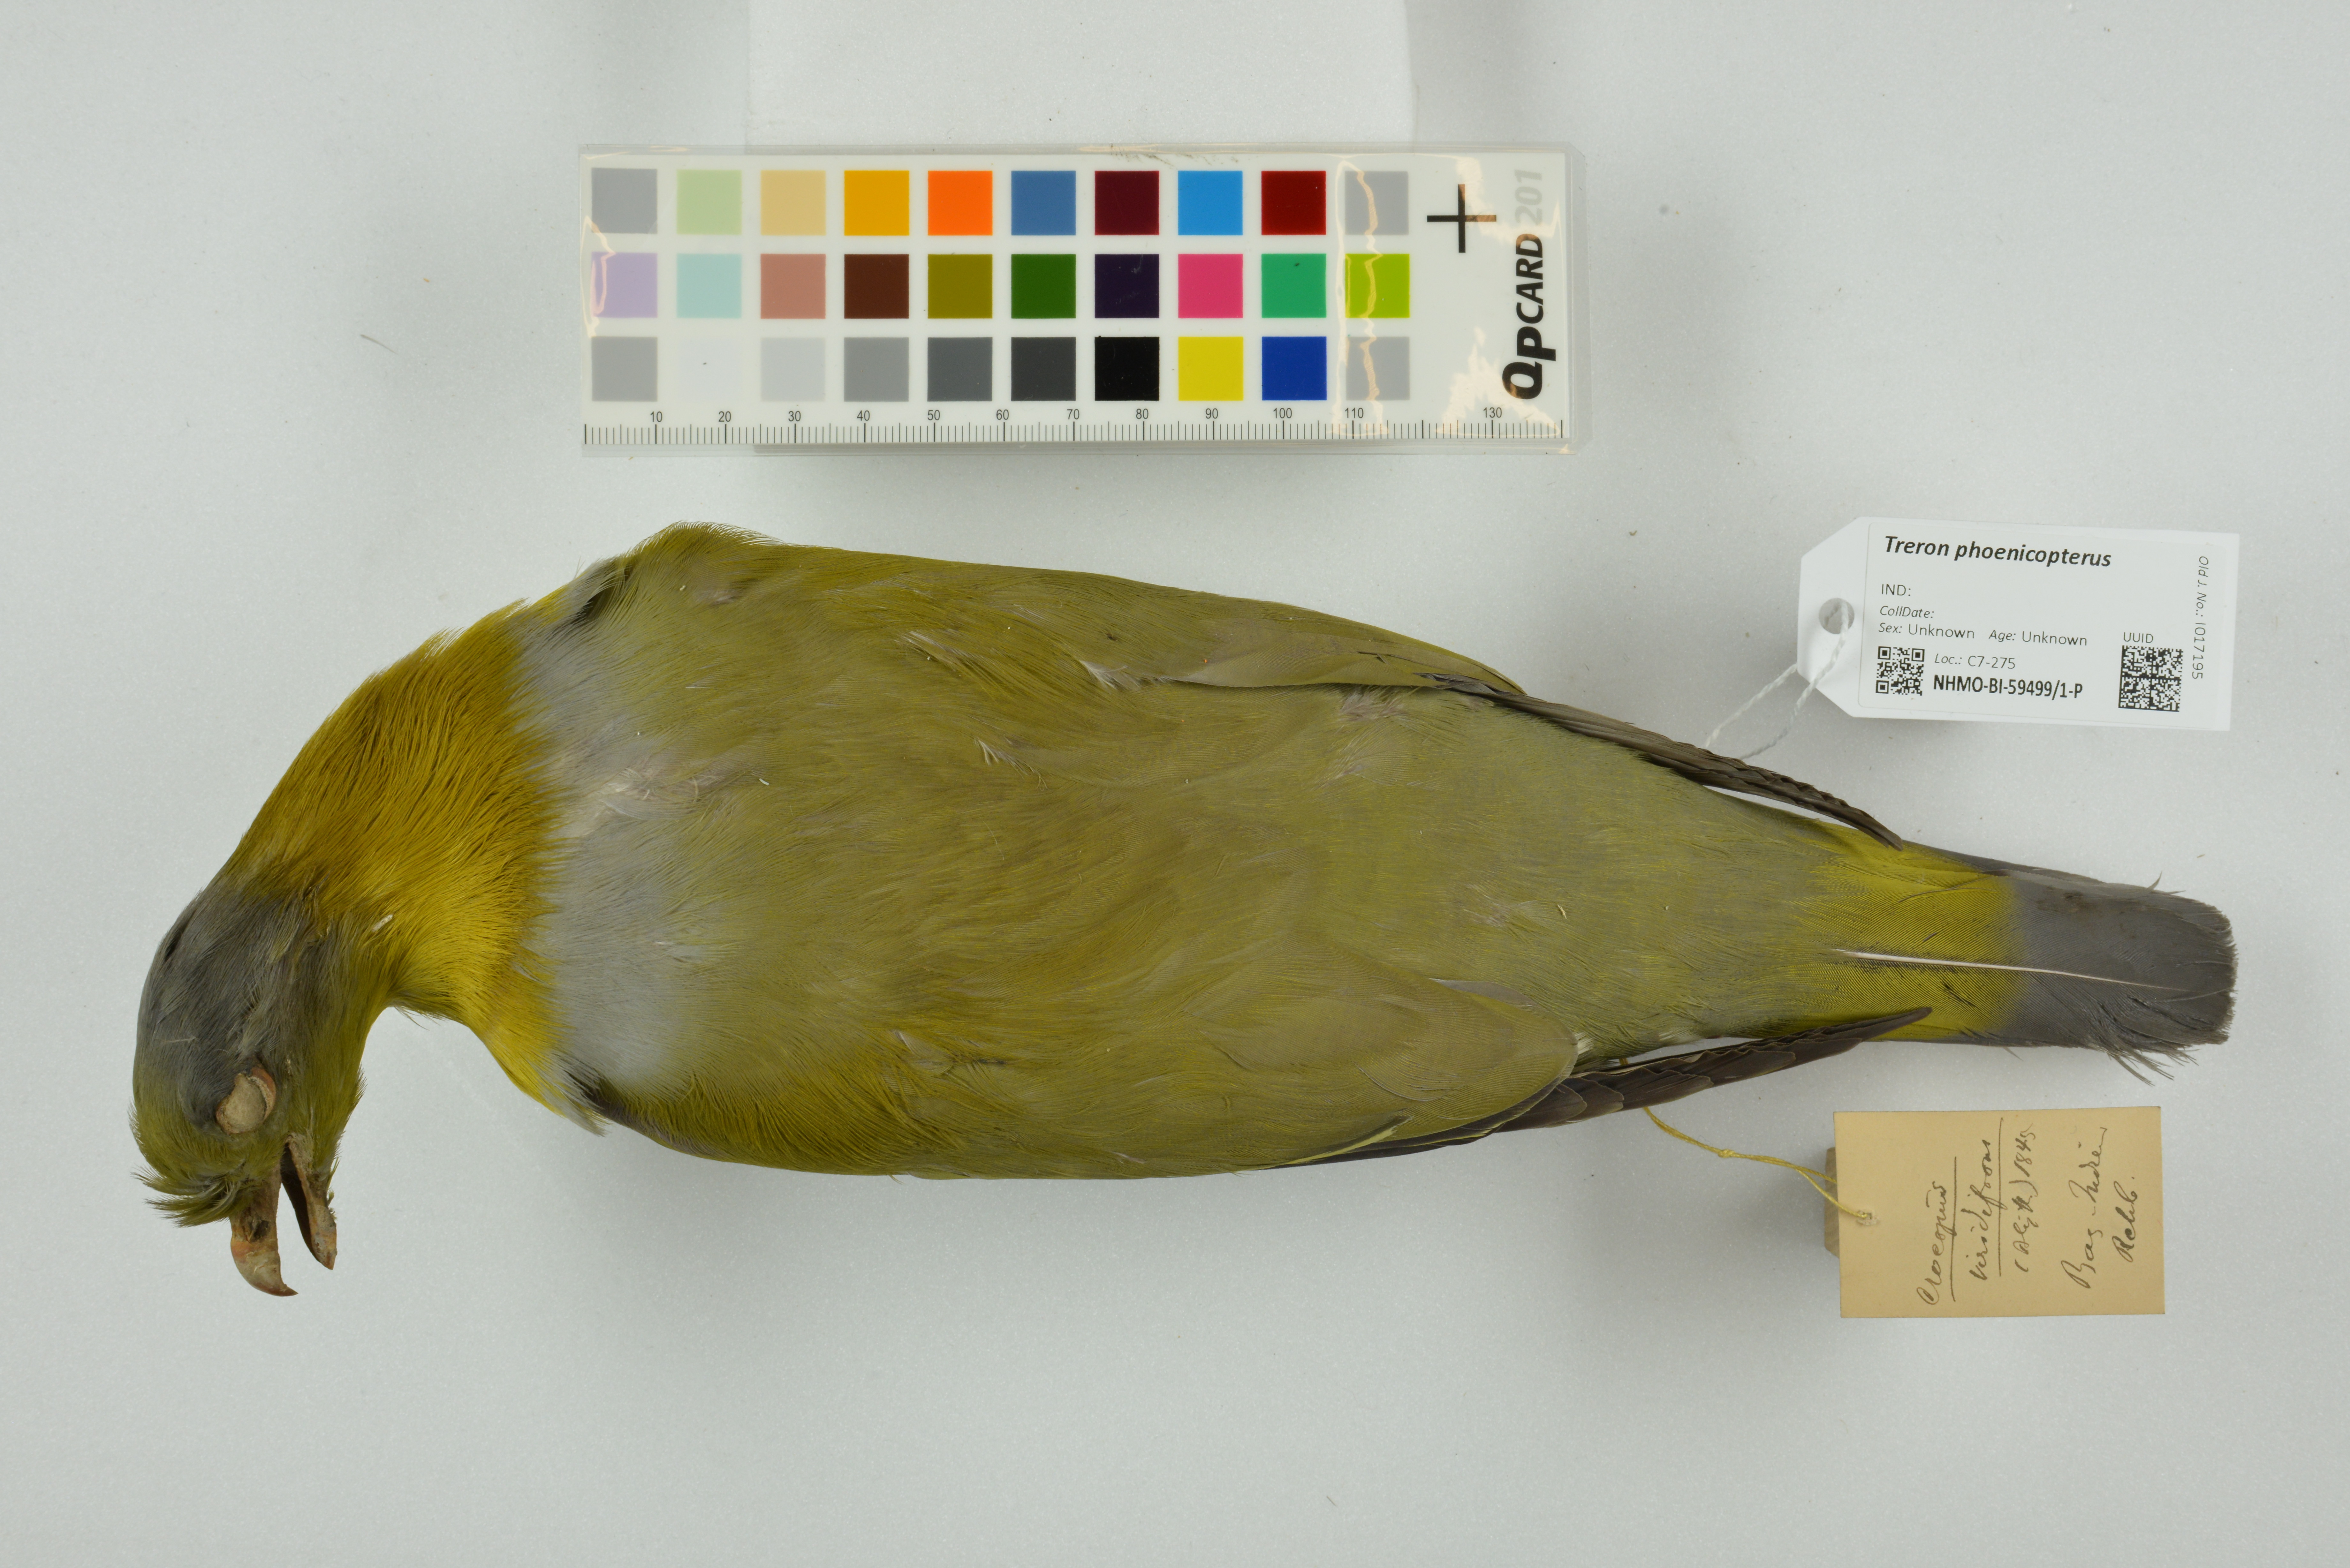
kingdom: Animalia
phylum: Chordata
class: Aves
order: Columbiformes
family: Columbidae
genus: Treron
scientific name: Treron phoenicopterus
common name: Yellow-footed green pigeon
